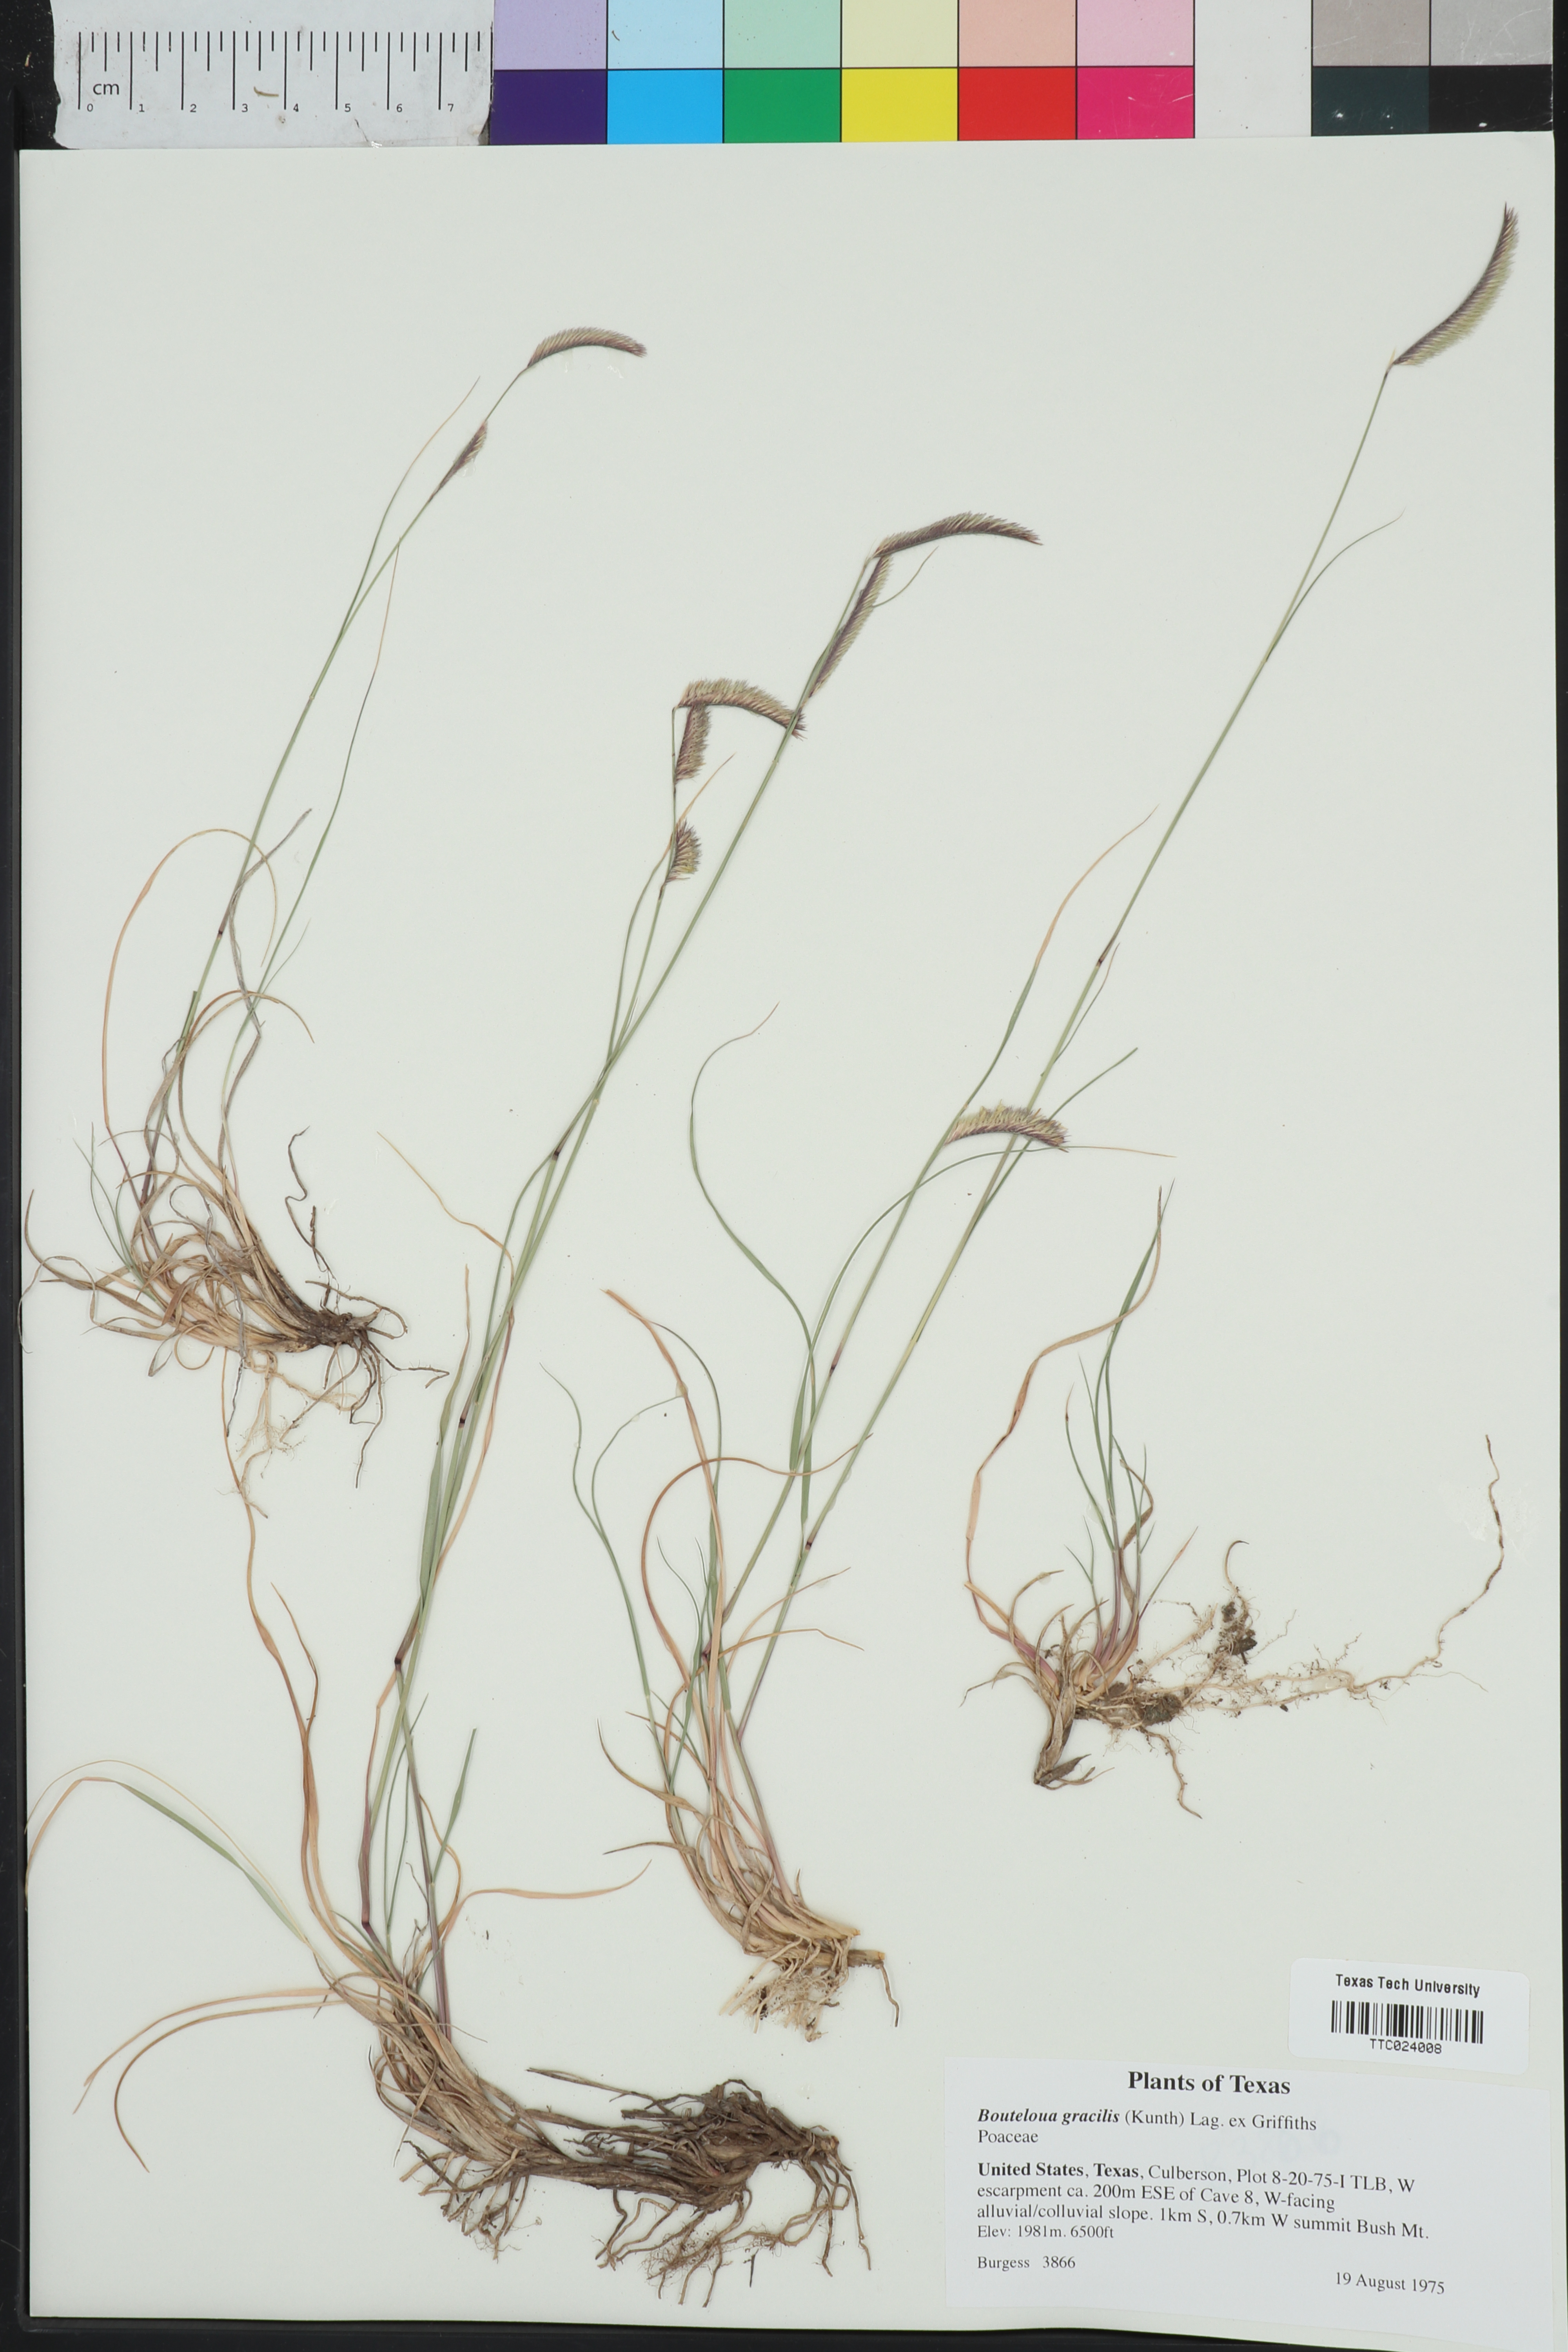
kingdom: Plantae
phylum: Tracheophyta
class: Liliopsida
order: Poales
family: Poaceae
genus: Bouteloua
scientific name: Bouteloua
